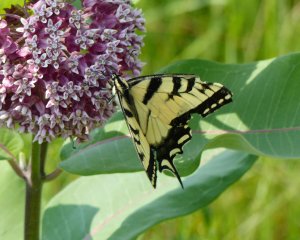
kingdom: Animalia
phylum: Arthropoda
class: Insecta
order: Lepidoptera
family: Papilionidae
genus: Pterourus
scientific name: Pterourus glaucus
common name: Eastern Tiger Swallowtail
